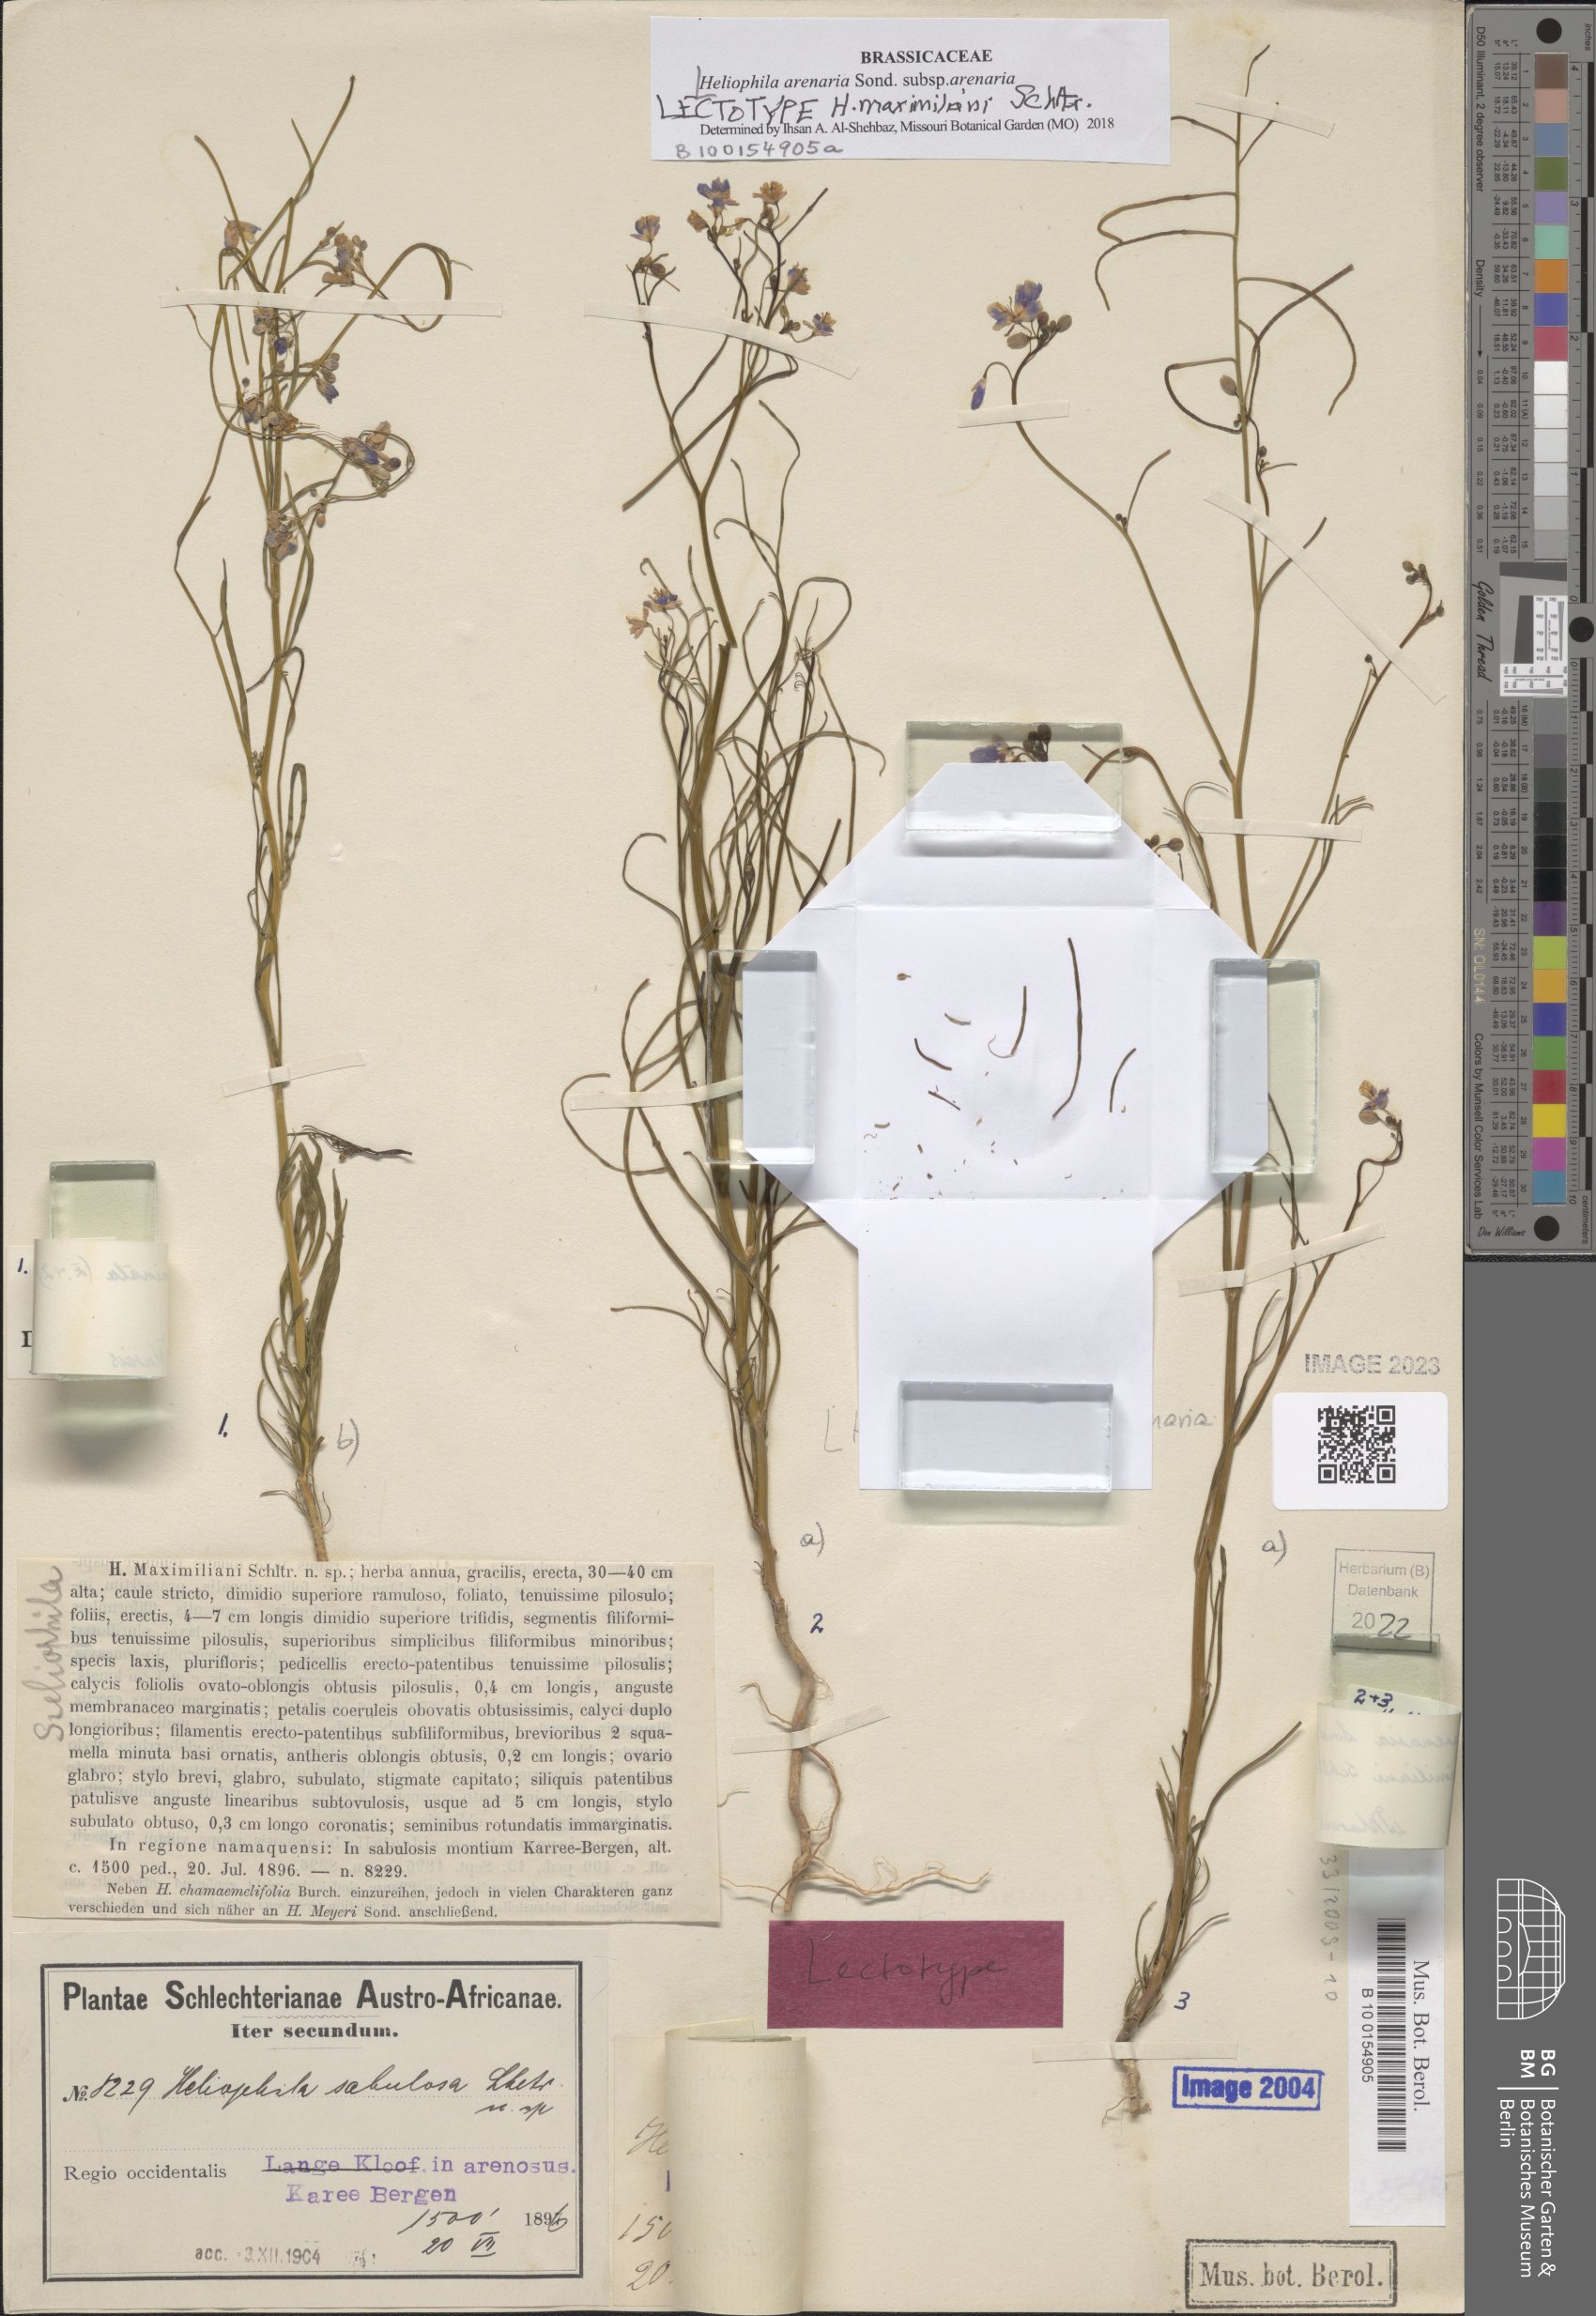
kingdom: Plantae
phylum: Tracheophyta
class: Magnoliopsida
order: Brassicales
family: Brassicaceae
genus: Heliophila
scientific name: Heliophila arenaria
